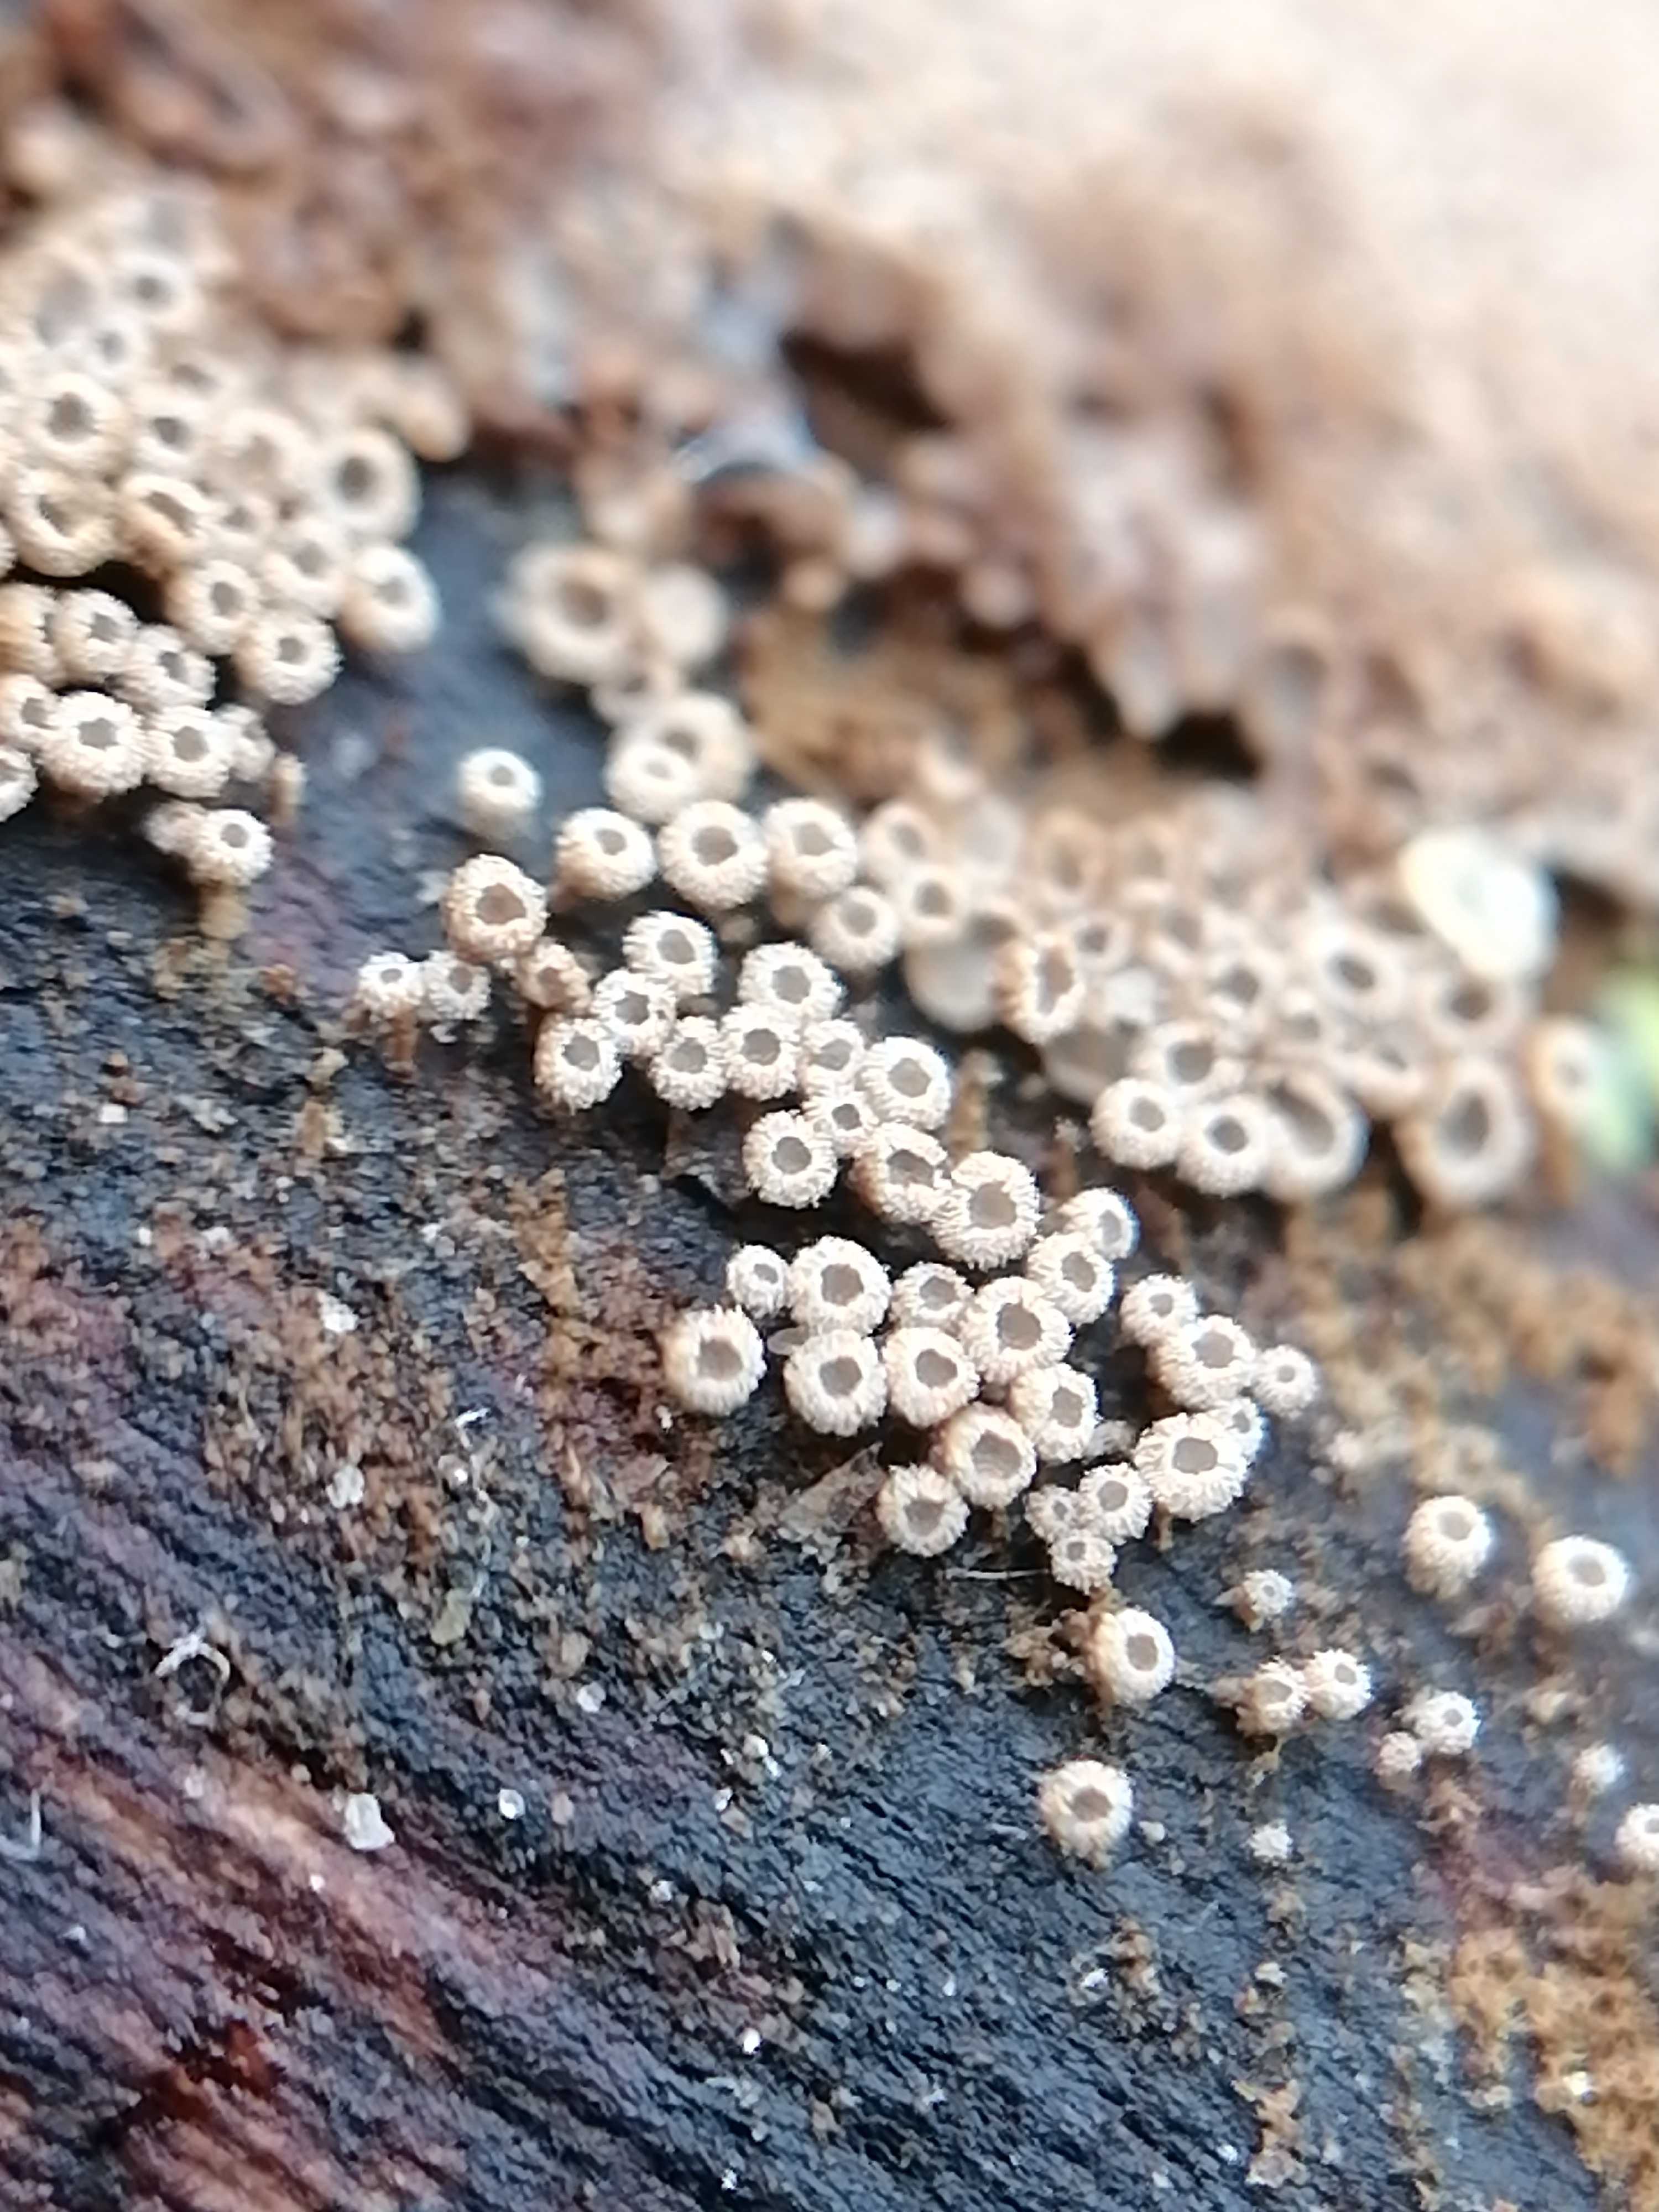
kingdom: Fungi
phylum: Basidiomycota
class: Agaricomycetes
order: Agaricales
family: Niaceae
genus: Merismodes
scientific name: Merismodes anomala
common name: almindelig læderskål
